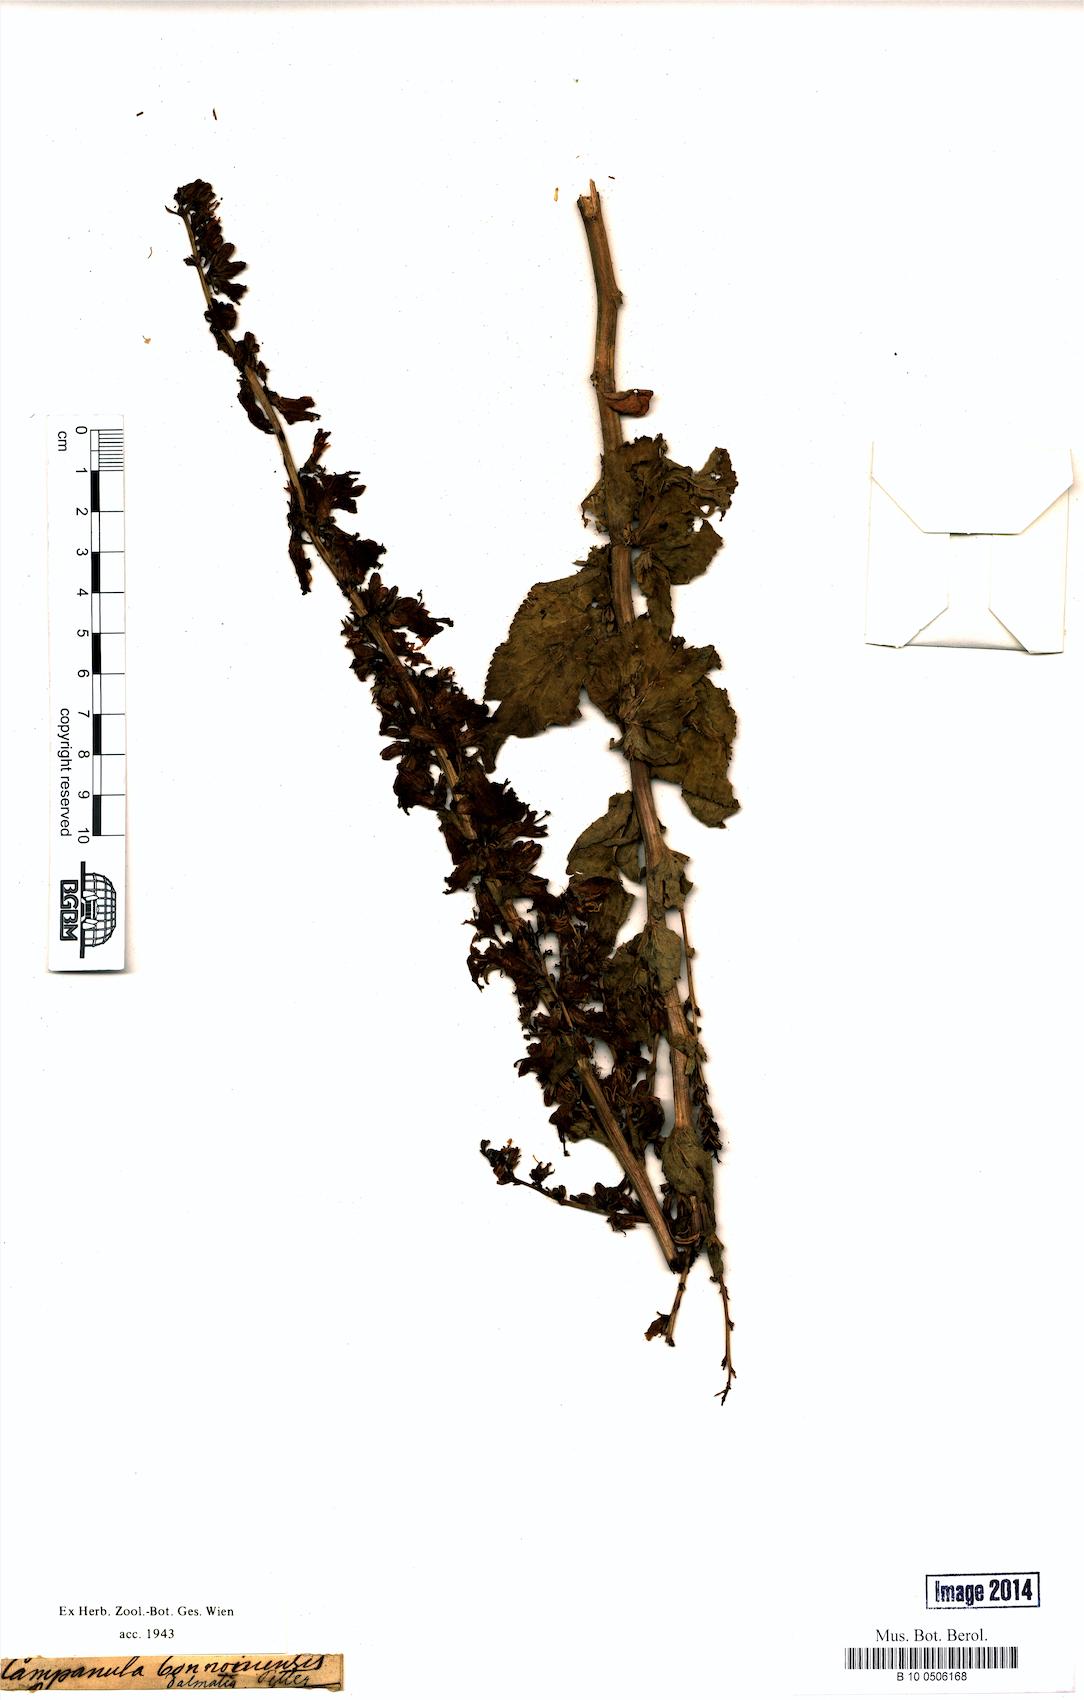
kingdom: Plantae
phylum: Tracheophyta
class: Magnoliopsida
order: Asterales
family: Campanulaceae
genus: Campanula
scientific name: Campanula bononiensis
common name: Pale bellflower
